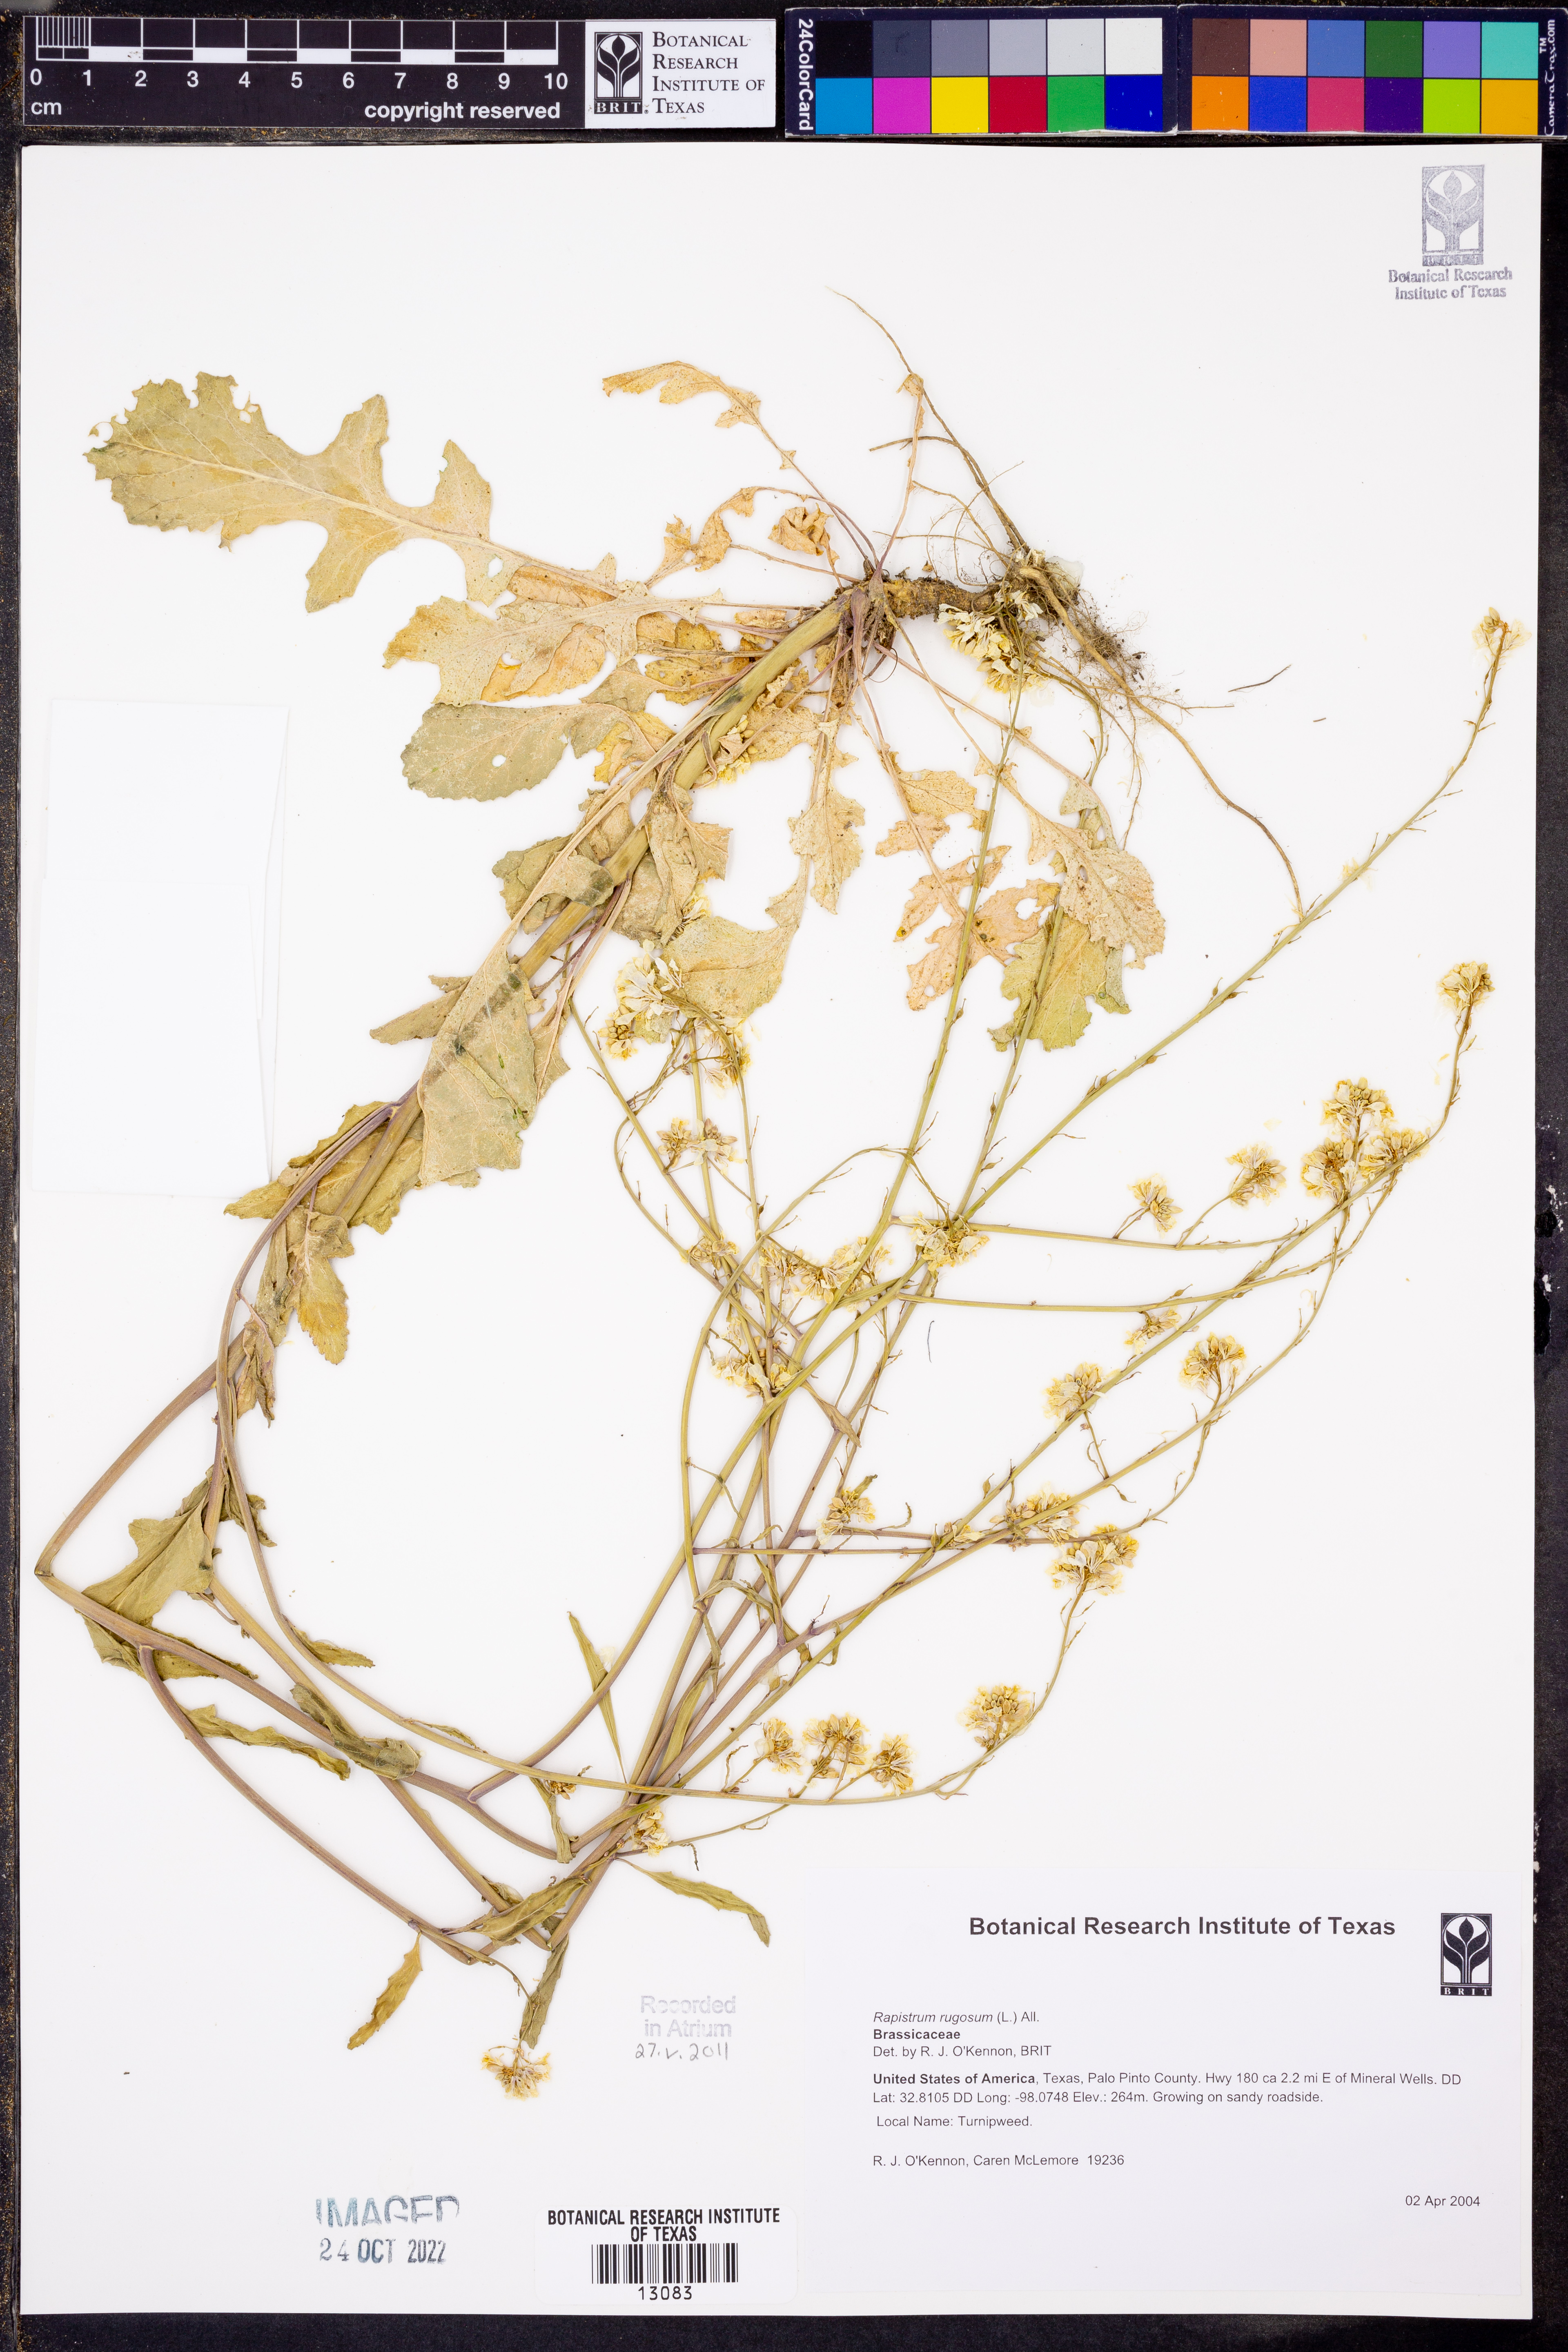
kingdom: Plantae
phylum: Tracheophyta
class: Magnoliopsida
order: Brassicales
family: Brassicaceae
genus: Rapistrum
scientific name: Rapistrum rugosum
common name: Annual bastardcabbage
